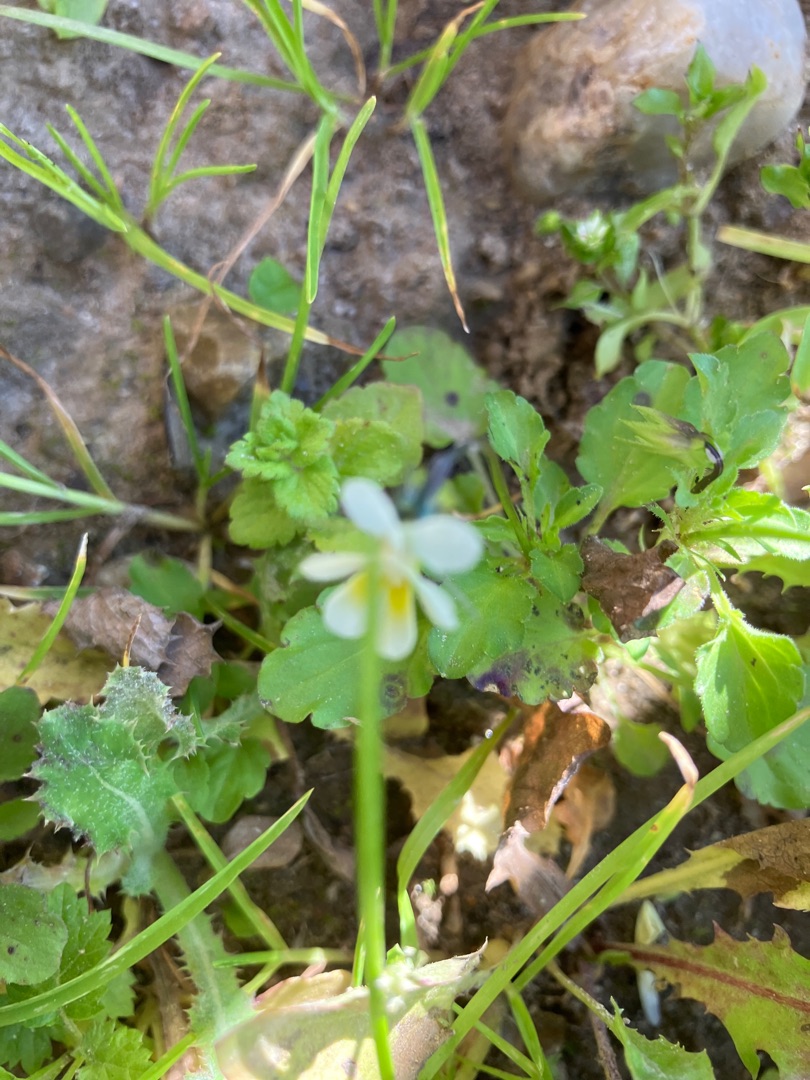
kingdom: Plantae
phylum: Tracheophyta
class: Magnoliopsida
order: Malpighiales
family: Violaceae
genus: Viola
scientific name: Viola arvensis
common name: Ager-stedmoderblomst
